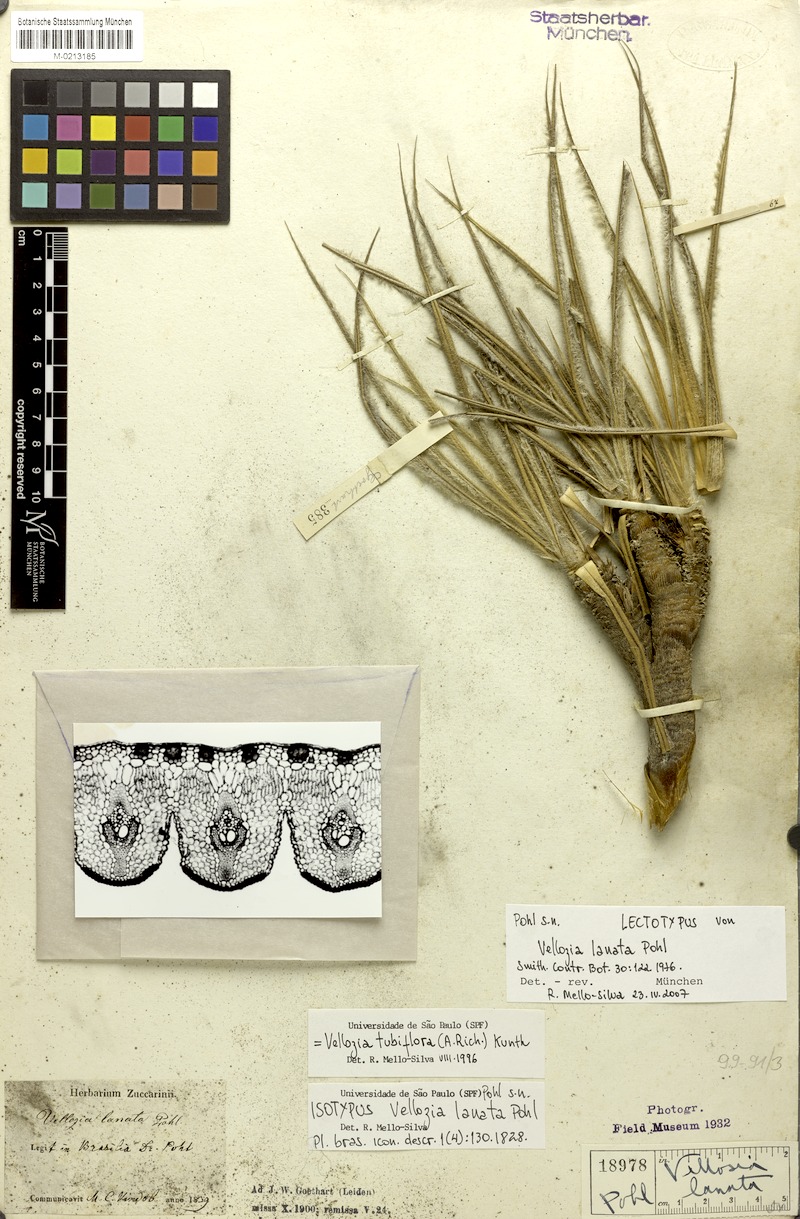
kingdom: Plantae
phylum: Tracheophyta
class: Liliopsida
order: Pandanales
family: Velloziaceae
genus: Vellozia
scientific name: Vellozia tubiflora
